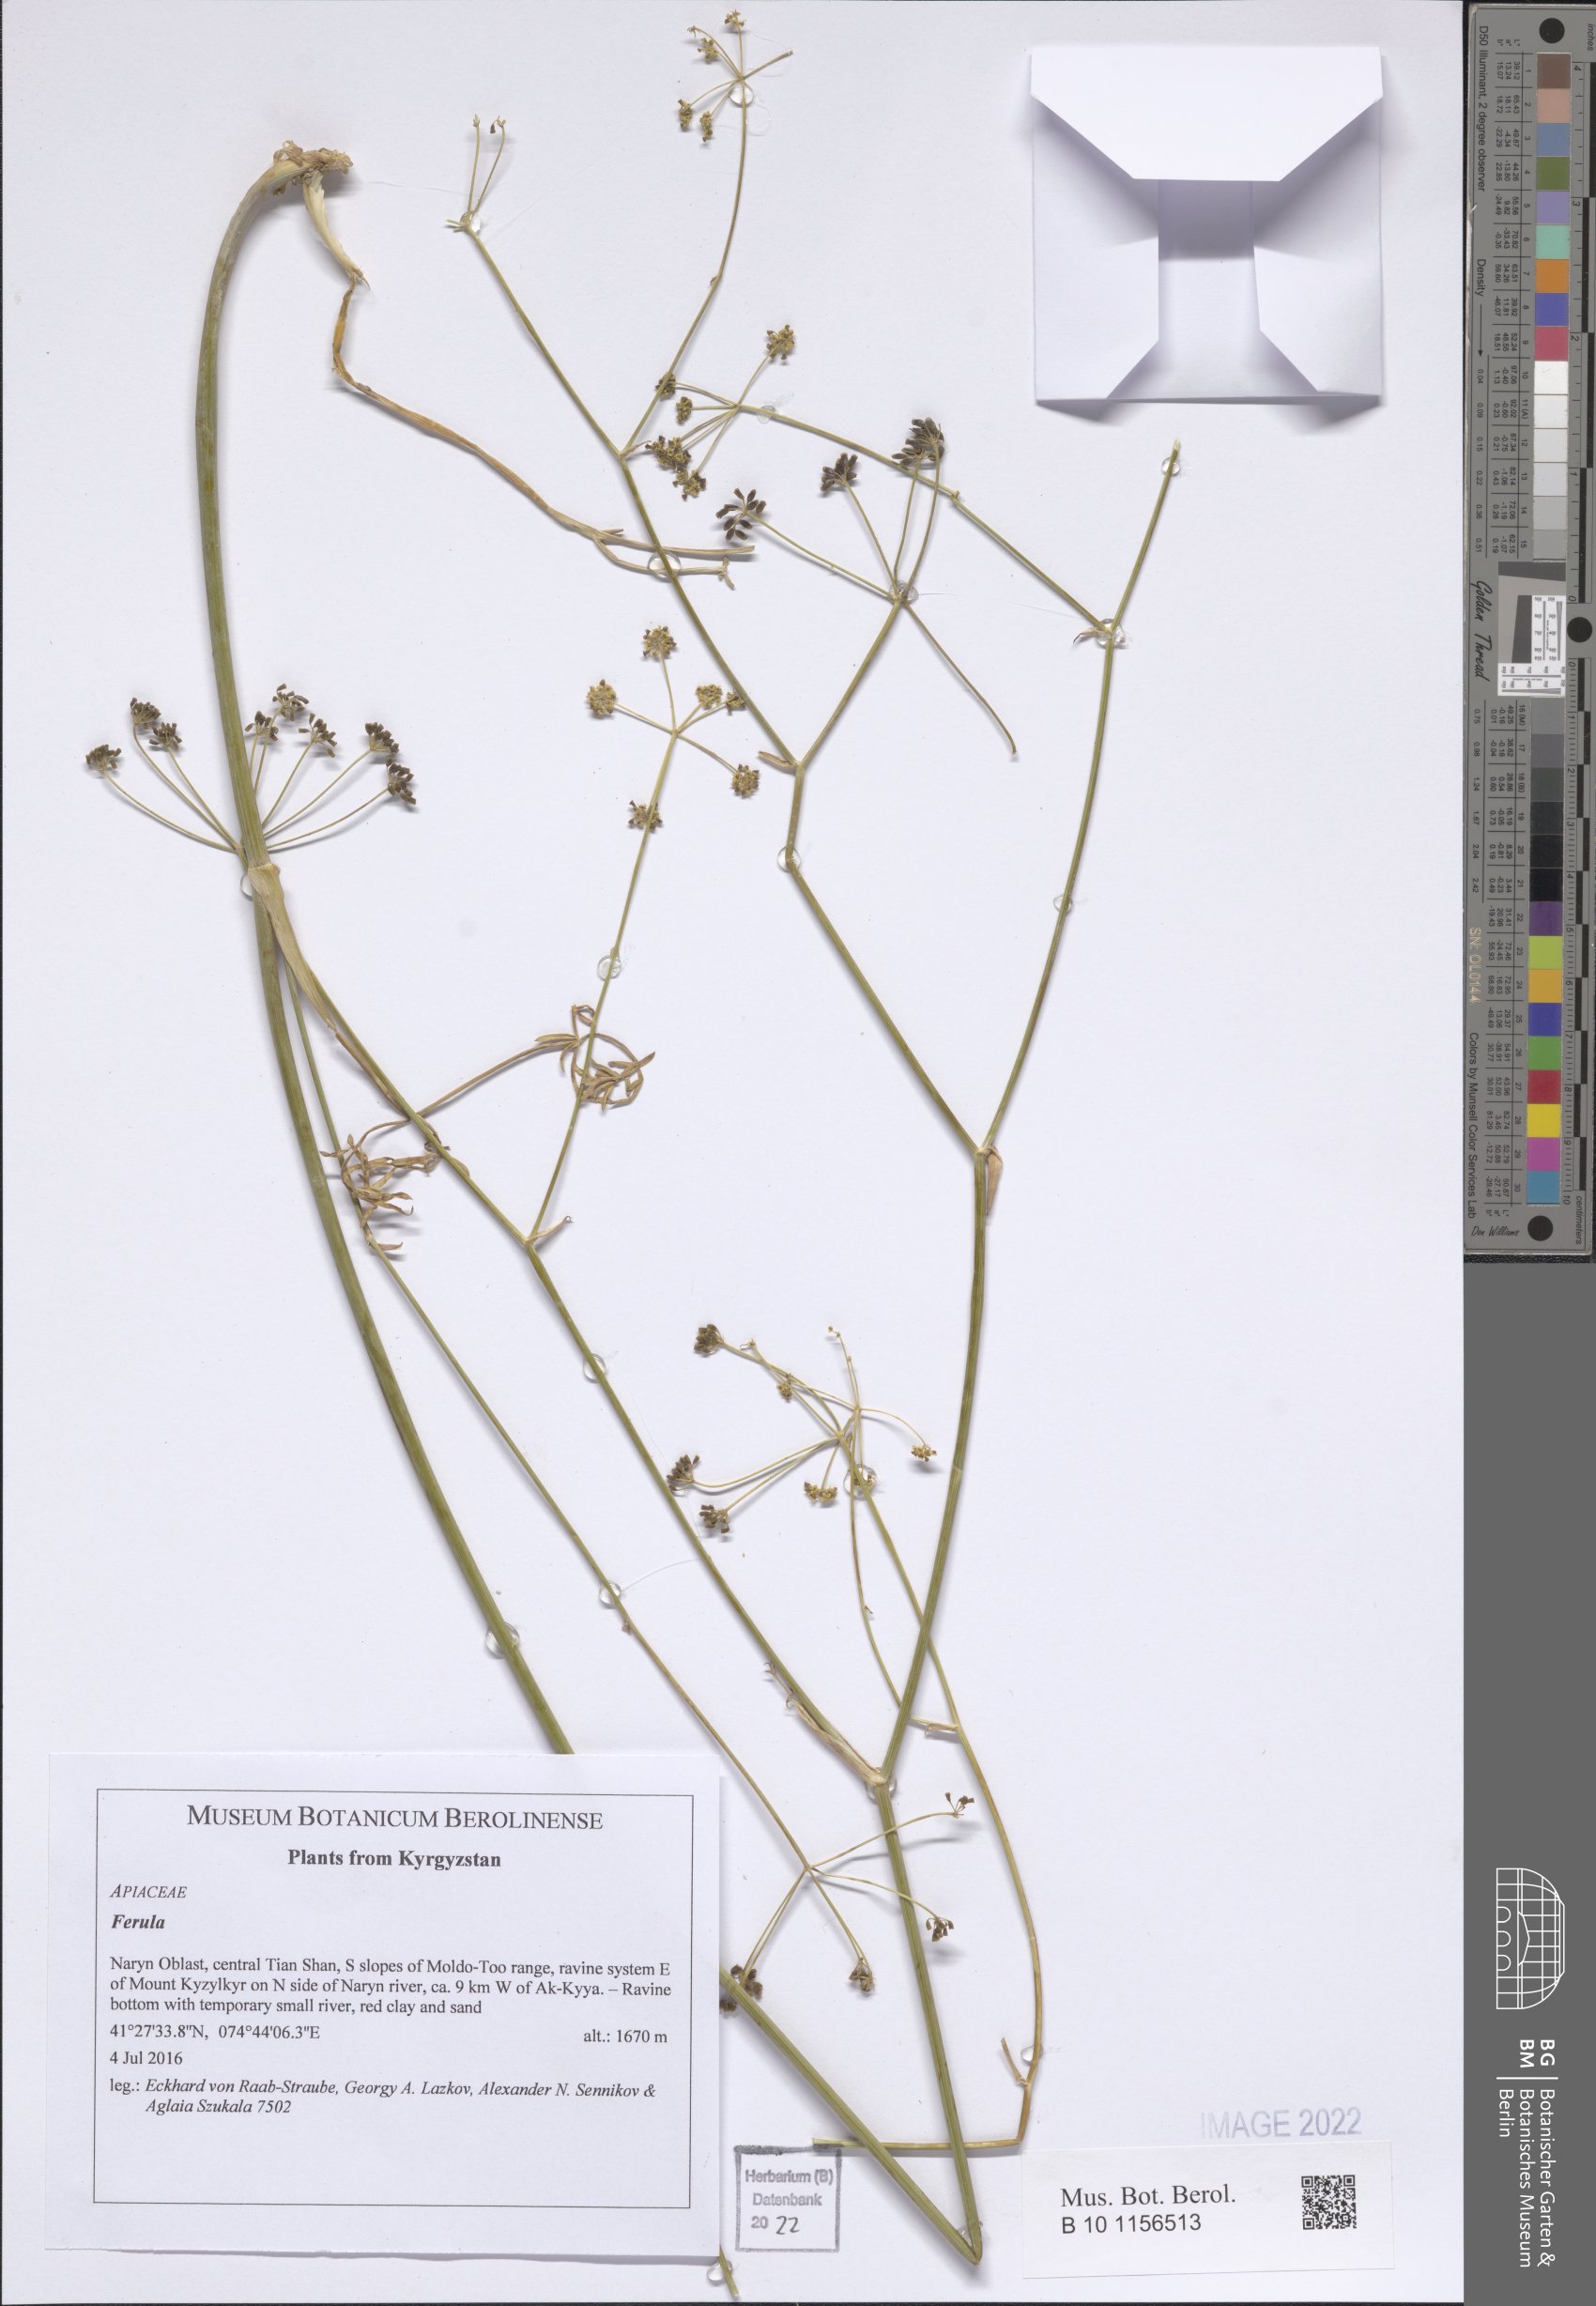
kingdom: Plantae
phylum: Tracheophyta
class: Magnoliopsida
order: Apiales
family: Apiaceae
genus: Ferula
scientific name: Ferula
